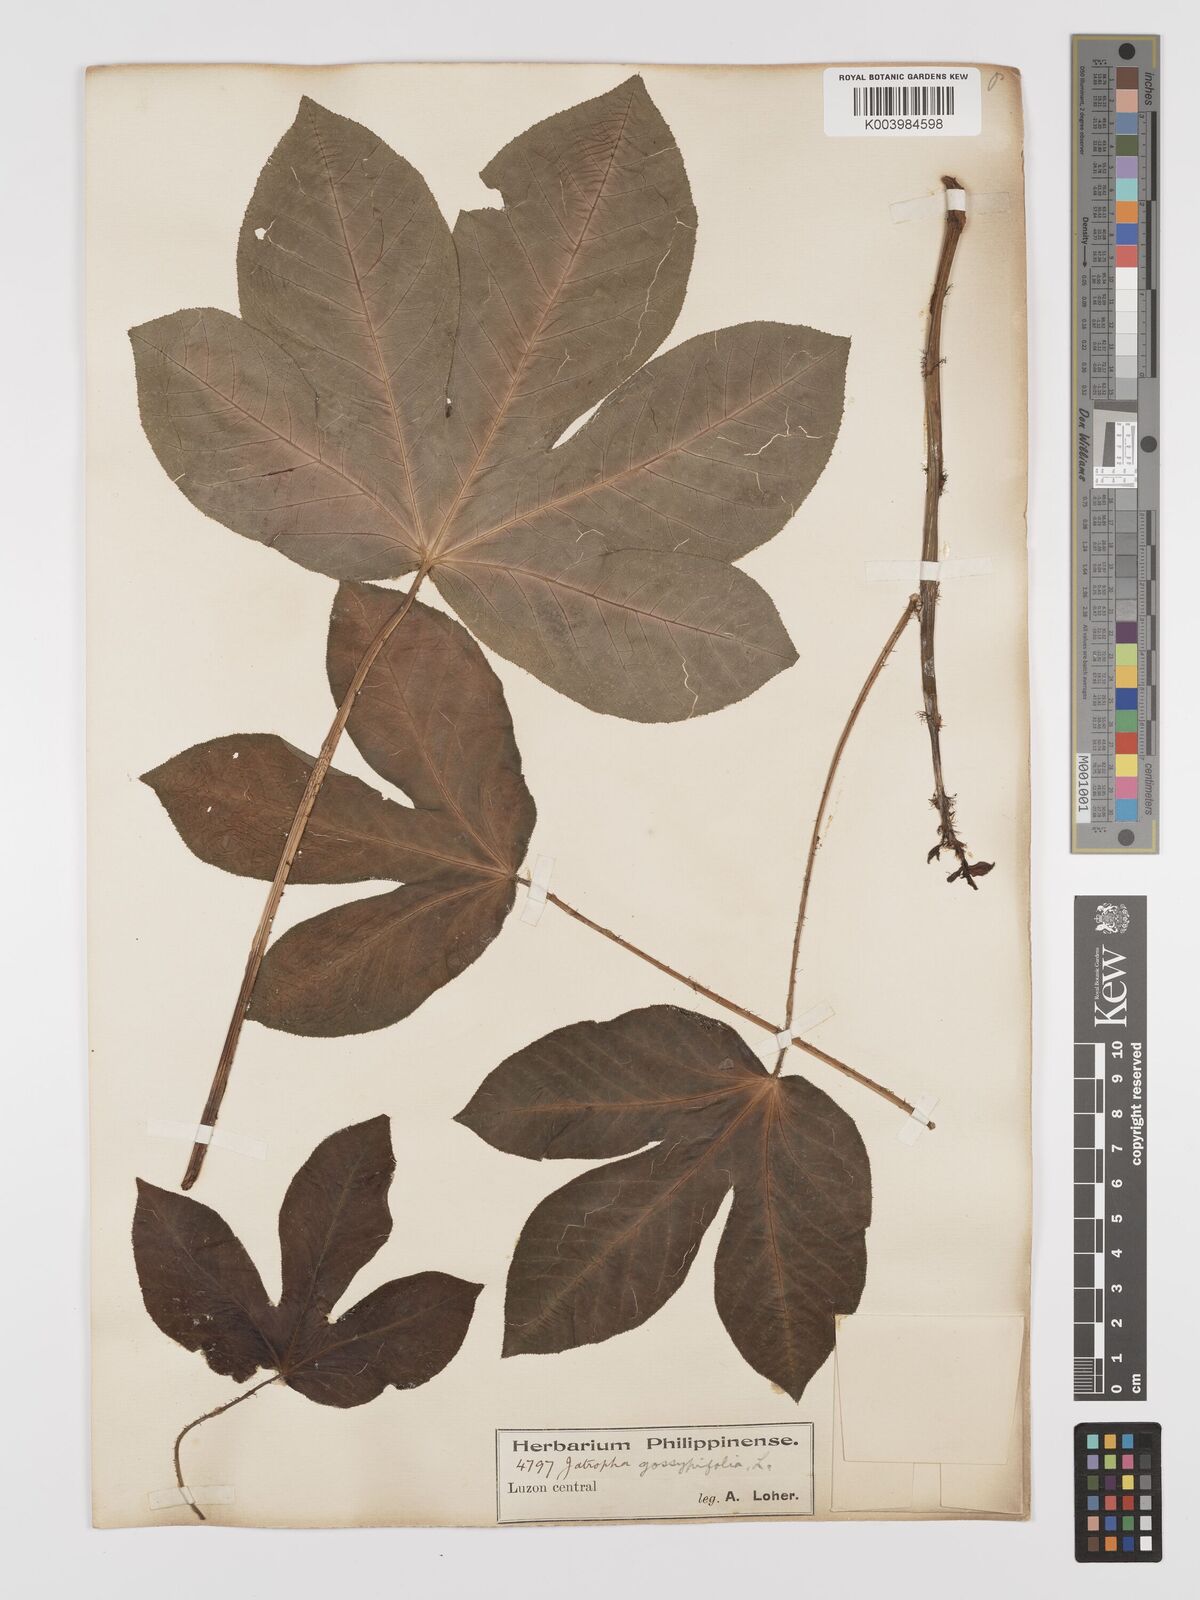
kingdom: Plantae
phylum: Tracheophyta
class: Magnoliopsida
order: Malpighiales
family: Euphorbiaceae
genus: Jatropha
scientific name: Jatropha gossypiifolia
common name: Bellyache bush
